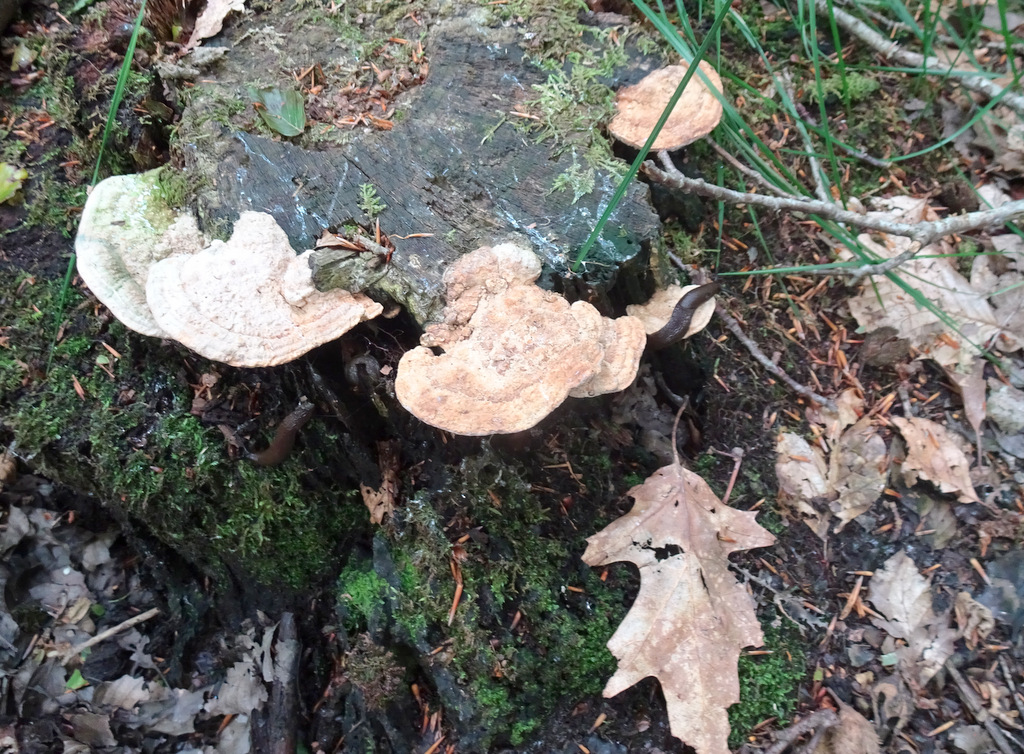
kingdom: Fungi
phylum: Basidiomycota
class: Agaricomycetes
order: Polyporales
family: Fomitopsidaceae
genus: Daedalea
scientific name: Daedalea quercina
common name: ege-labyrintsvamp
